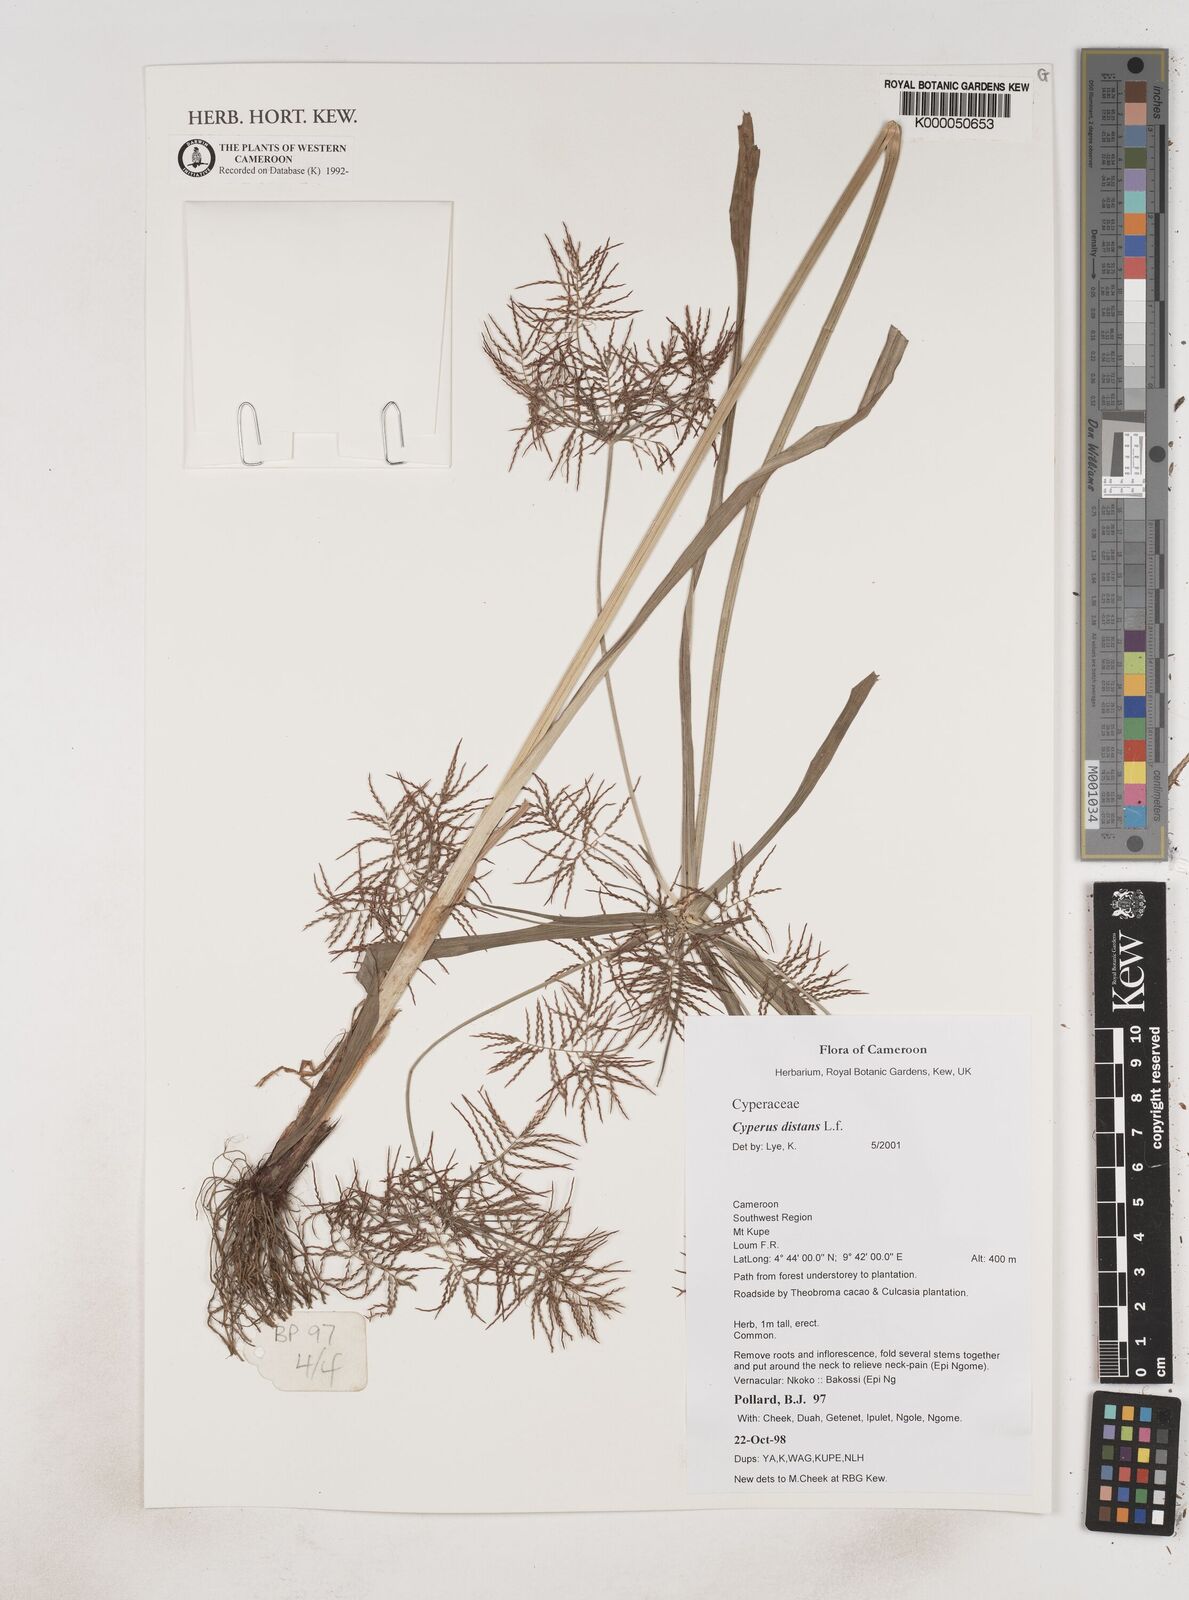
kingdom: Plantae
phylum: Tracheophyta
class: Liliopsida
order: Poales
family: Cyperaceae
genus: Cyperus
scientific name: Cyperus distans
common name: Slender cyperus
